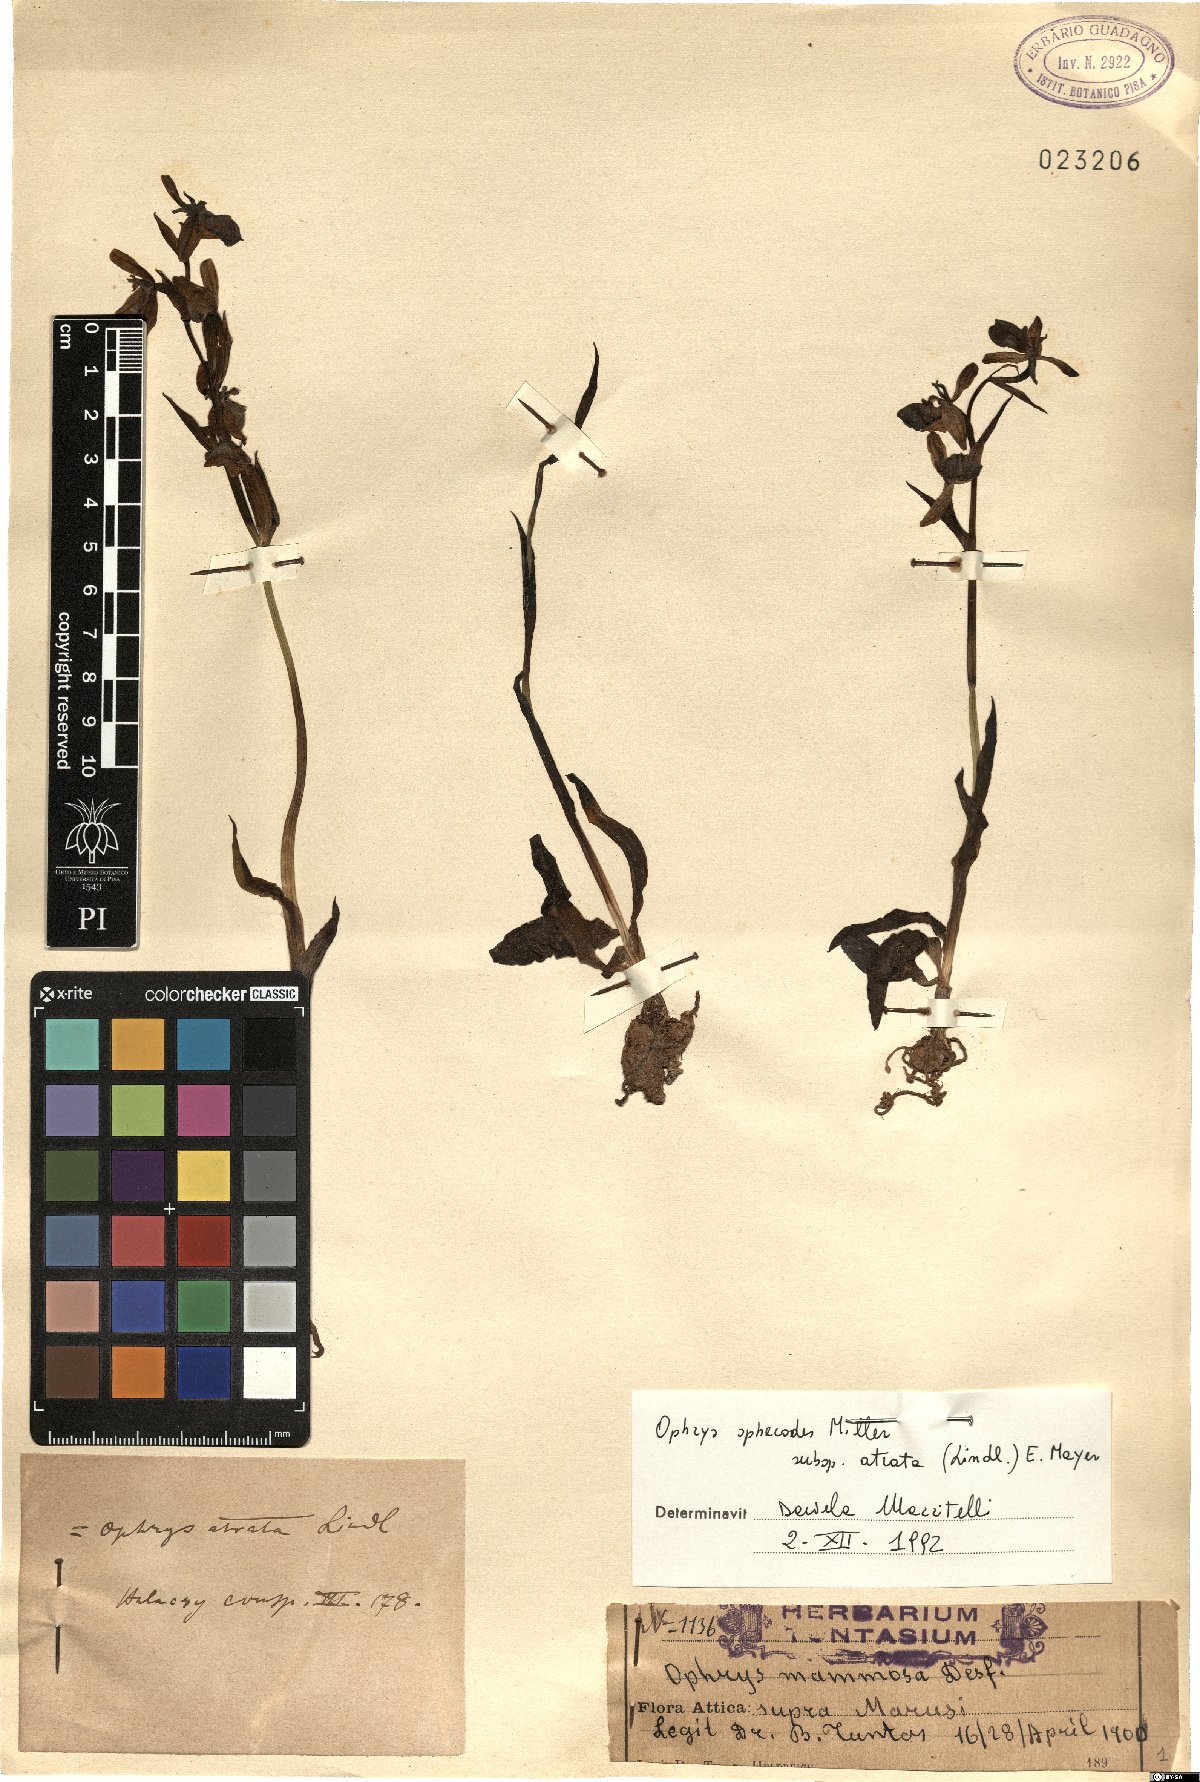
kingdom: Plantae
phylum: Tracheophyta
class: Liliopsida
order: Asparagales
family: Orchidaceae
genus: Ophrys
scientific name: Ophrys sphegodes
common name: Early spider-orchid
